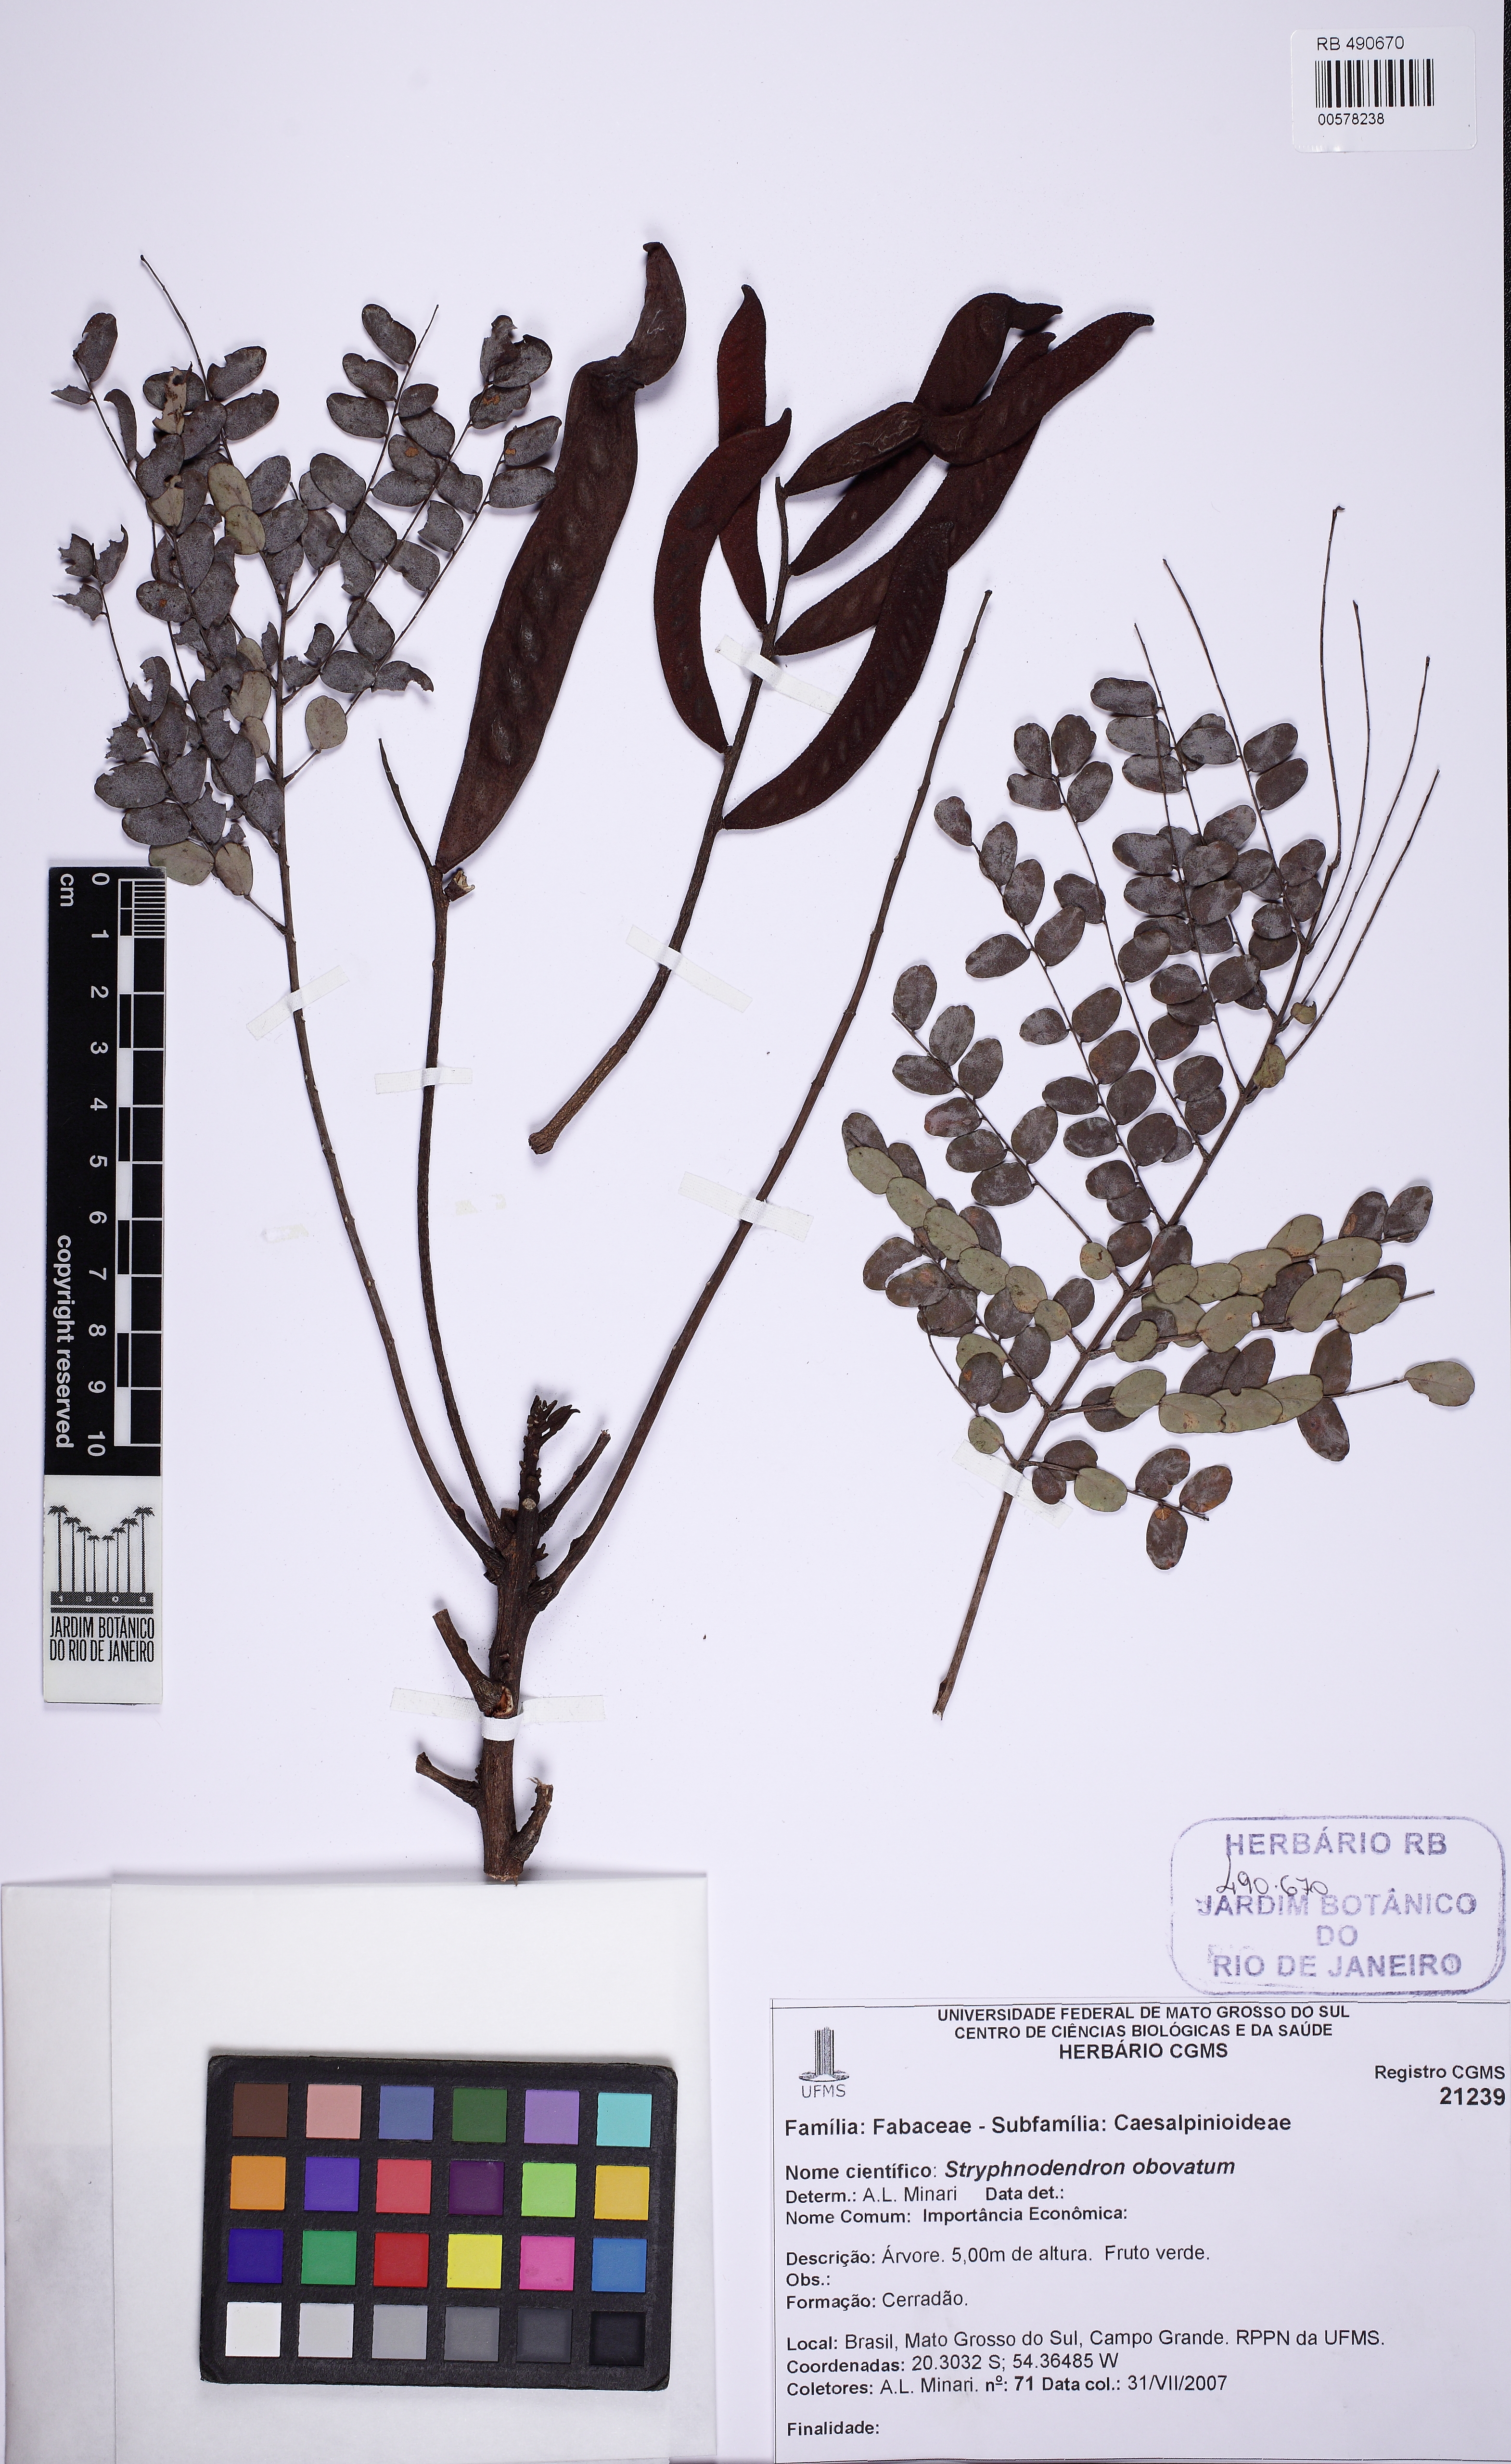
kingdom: Plantae
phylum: Tracheophyta
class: Magnoliopsida
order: Fabales
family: Fabaceae
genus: Stryphnodendron
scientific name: Stryphnodendron rotundifolium
